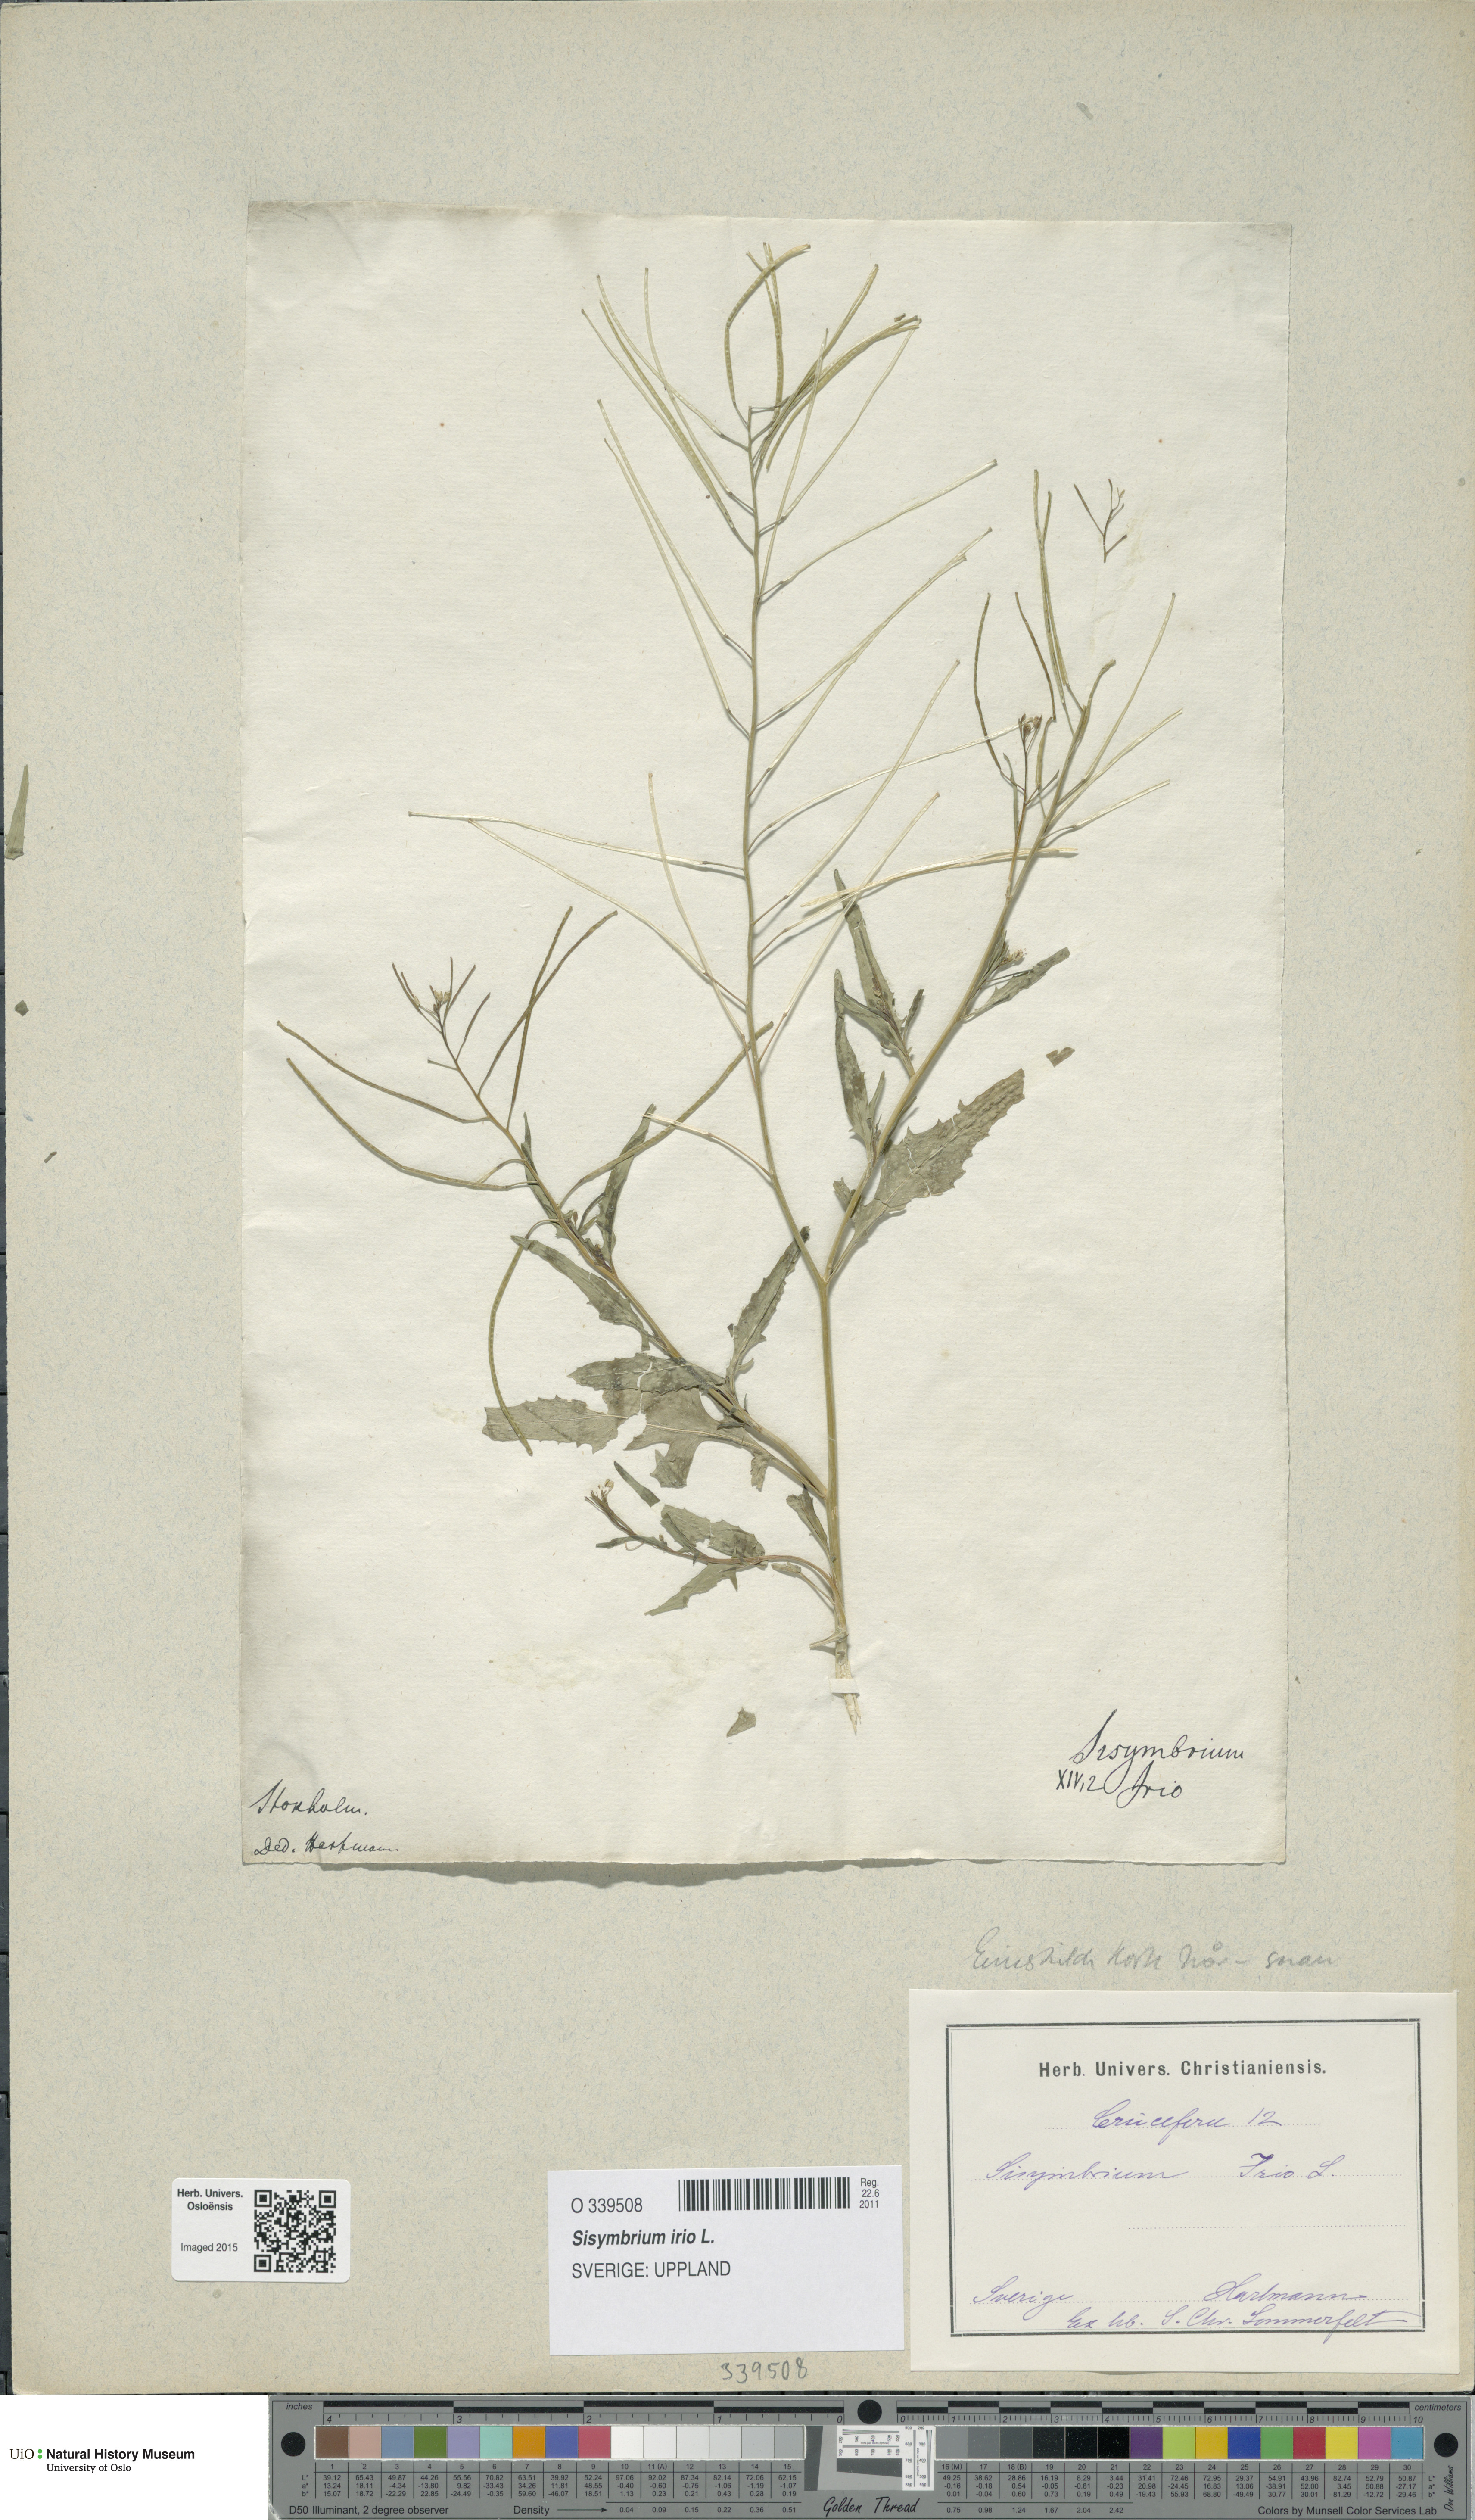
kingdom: Plantae
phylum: Tracheophyta
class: Magnoliopsida
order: Brassicales
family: Brassicaceae
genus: Sisymbrium
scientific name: Sisymbrium irio
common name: London rocket
